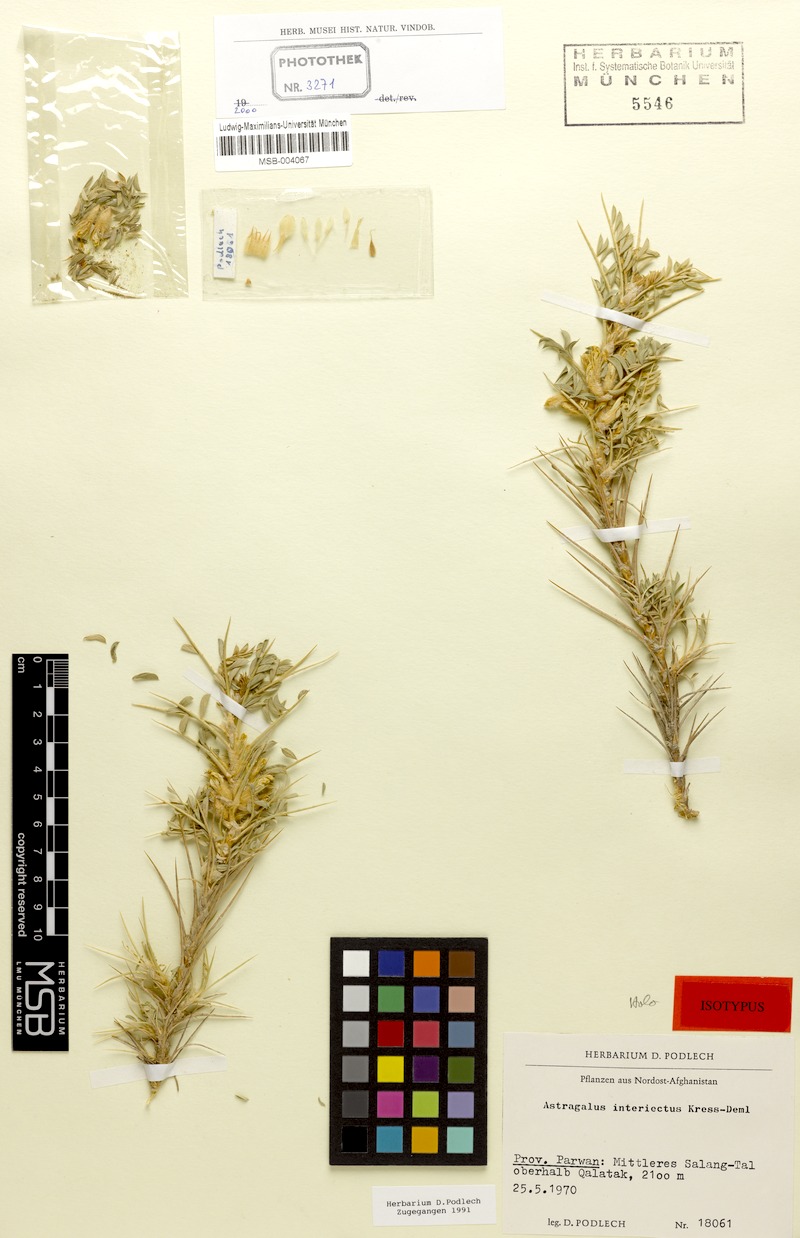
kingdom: Plantae
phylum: Tracheophyta
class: Magnoliopsida
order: Fabales
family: Fabaceae
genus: Astragalus
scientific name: Astragalus interiectus
